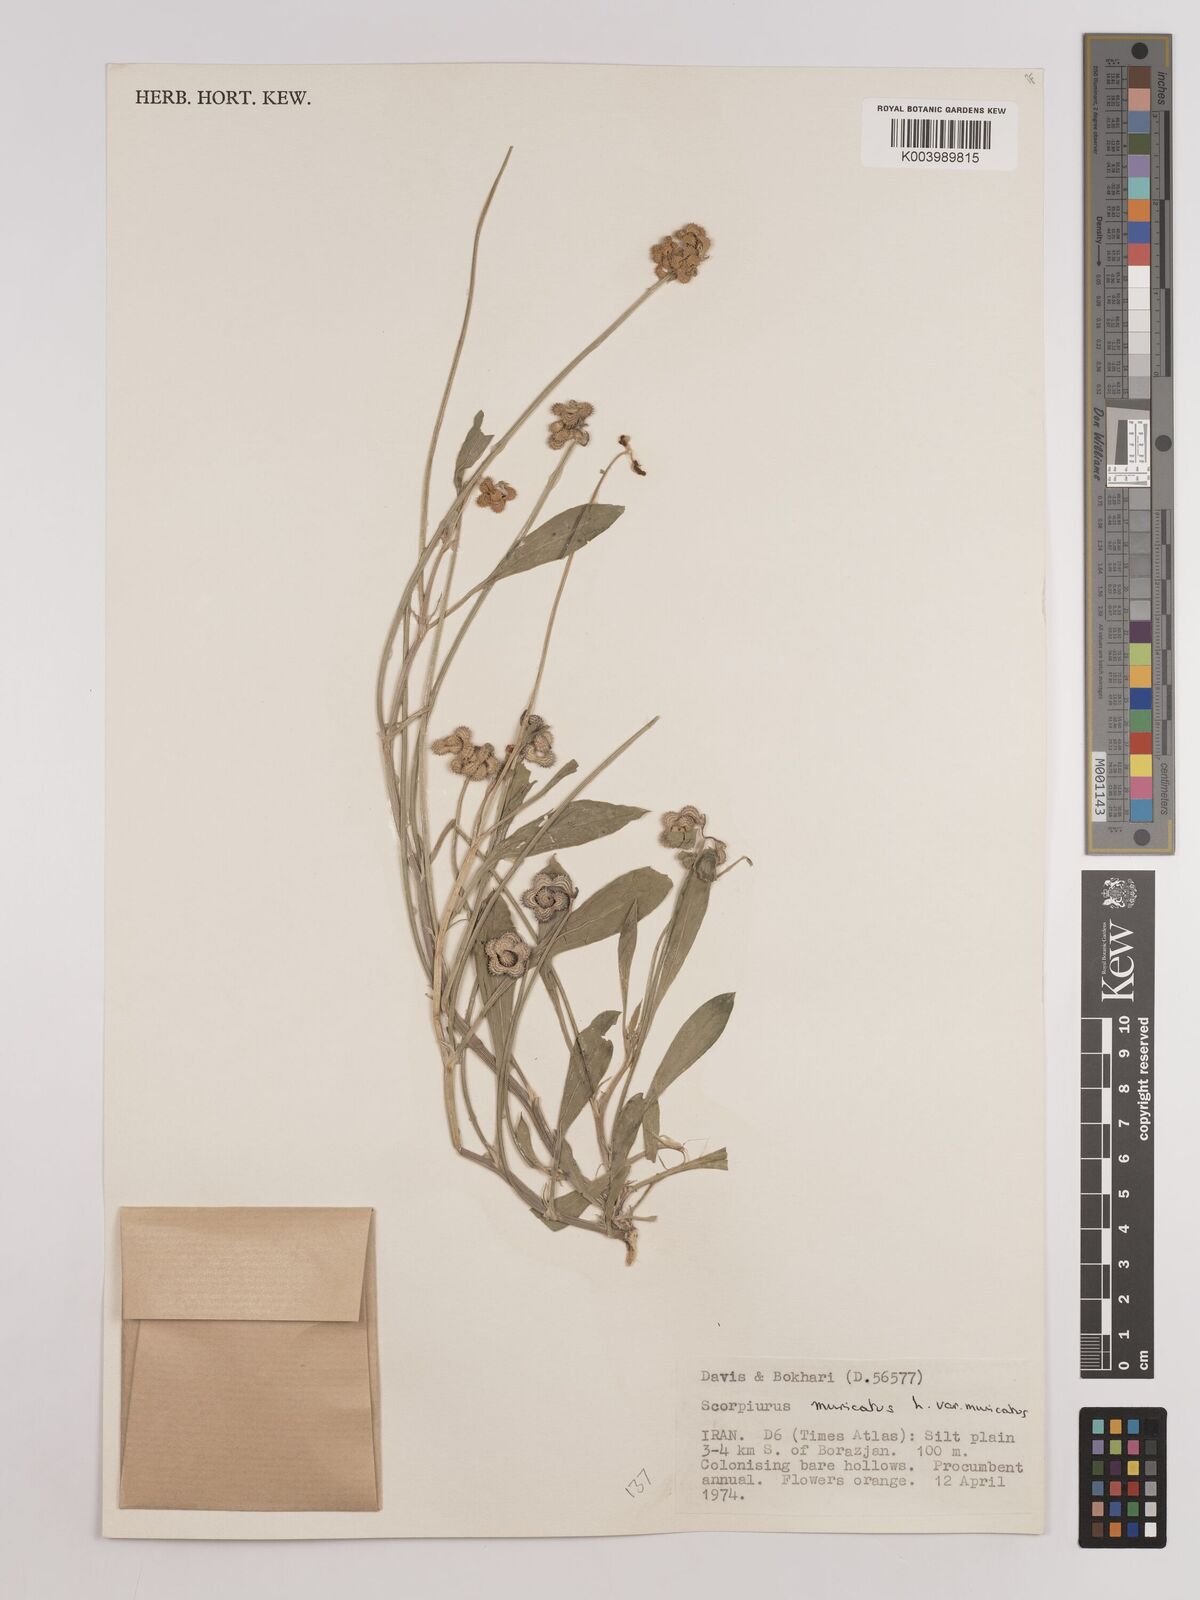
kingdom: Plantae
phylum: Tracheophyta
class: Magnoliopsida
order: Fabales
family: Fabaceae
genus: Scorpiurus
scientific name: Scorpiurus muricatus
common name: Caterpillar-plant
